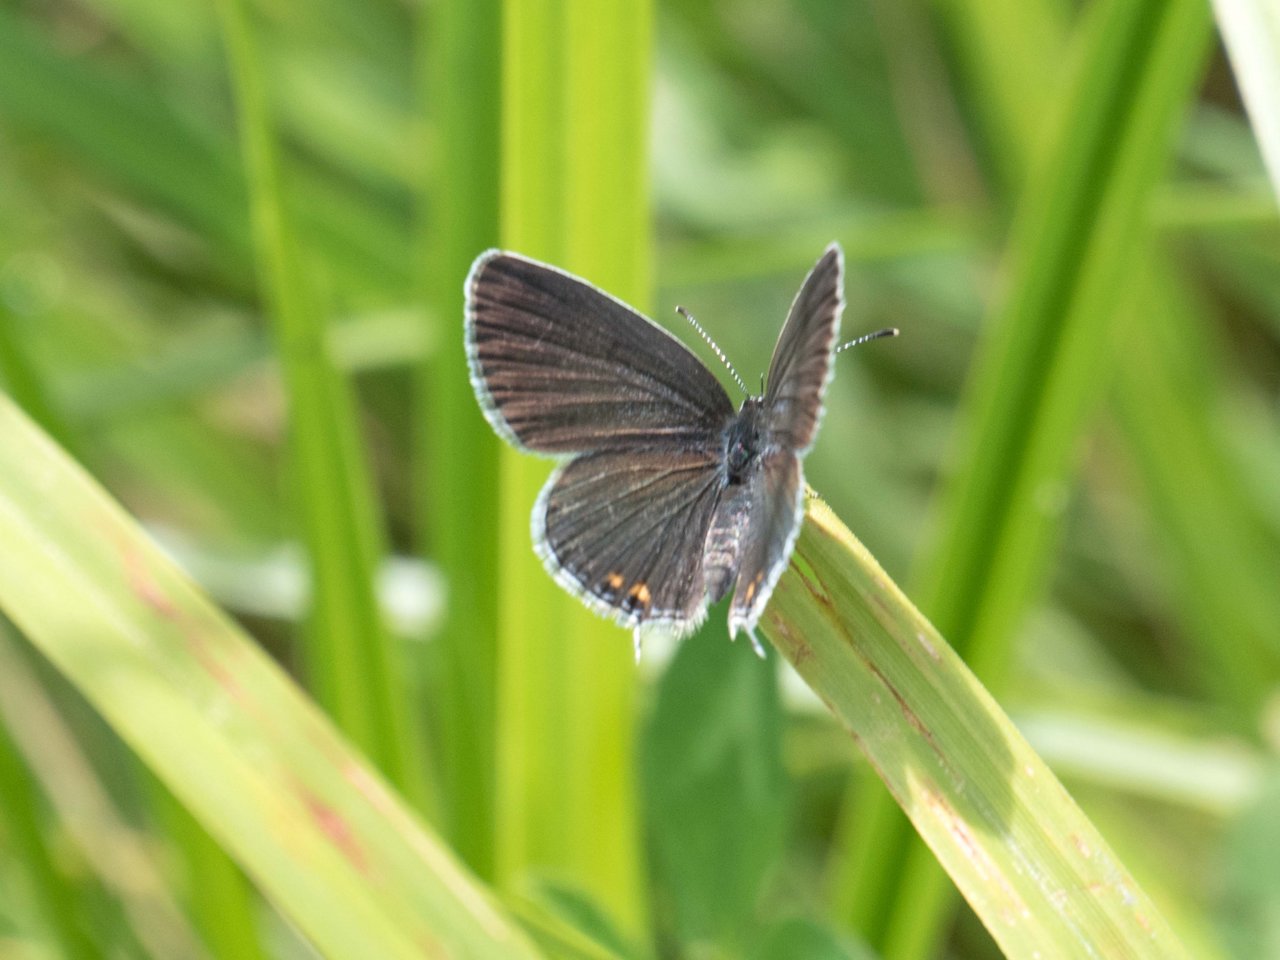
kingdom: Animalia
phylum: Arthropoda
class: Insecta
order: Lepidoptera
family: Lycaenidae
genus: Elkalyce
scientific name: Elkalyce comyntas
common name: Eastern Tailed-Blue
